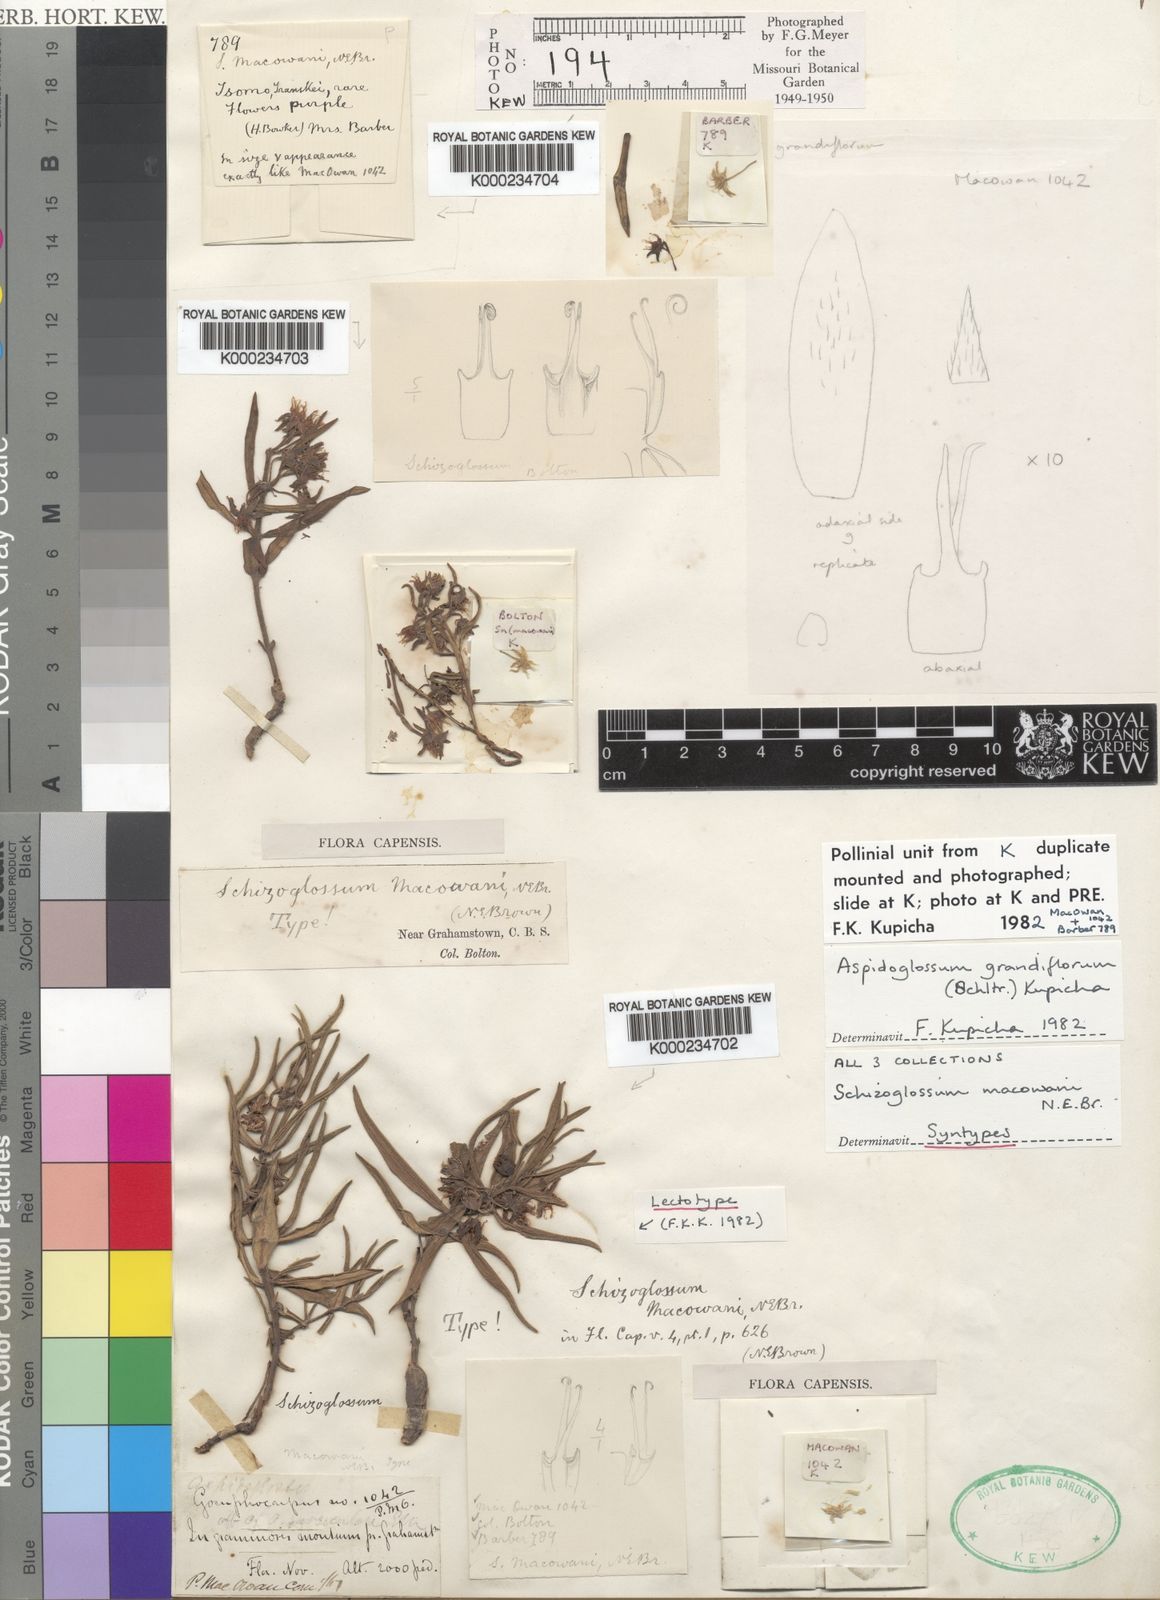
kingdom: Plantae
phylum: Tracheophyta
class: Magnoliopsida
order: Gentianales
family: Apocynaceae
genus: Aspidoglossum
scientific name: Aspidoglossum grandiflorum
